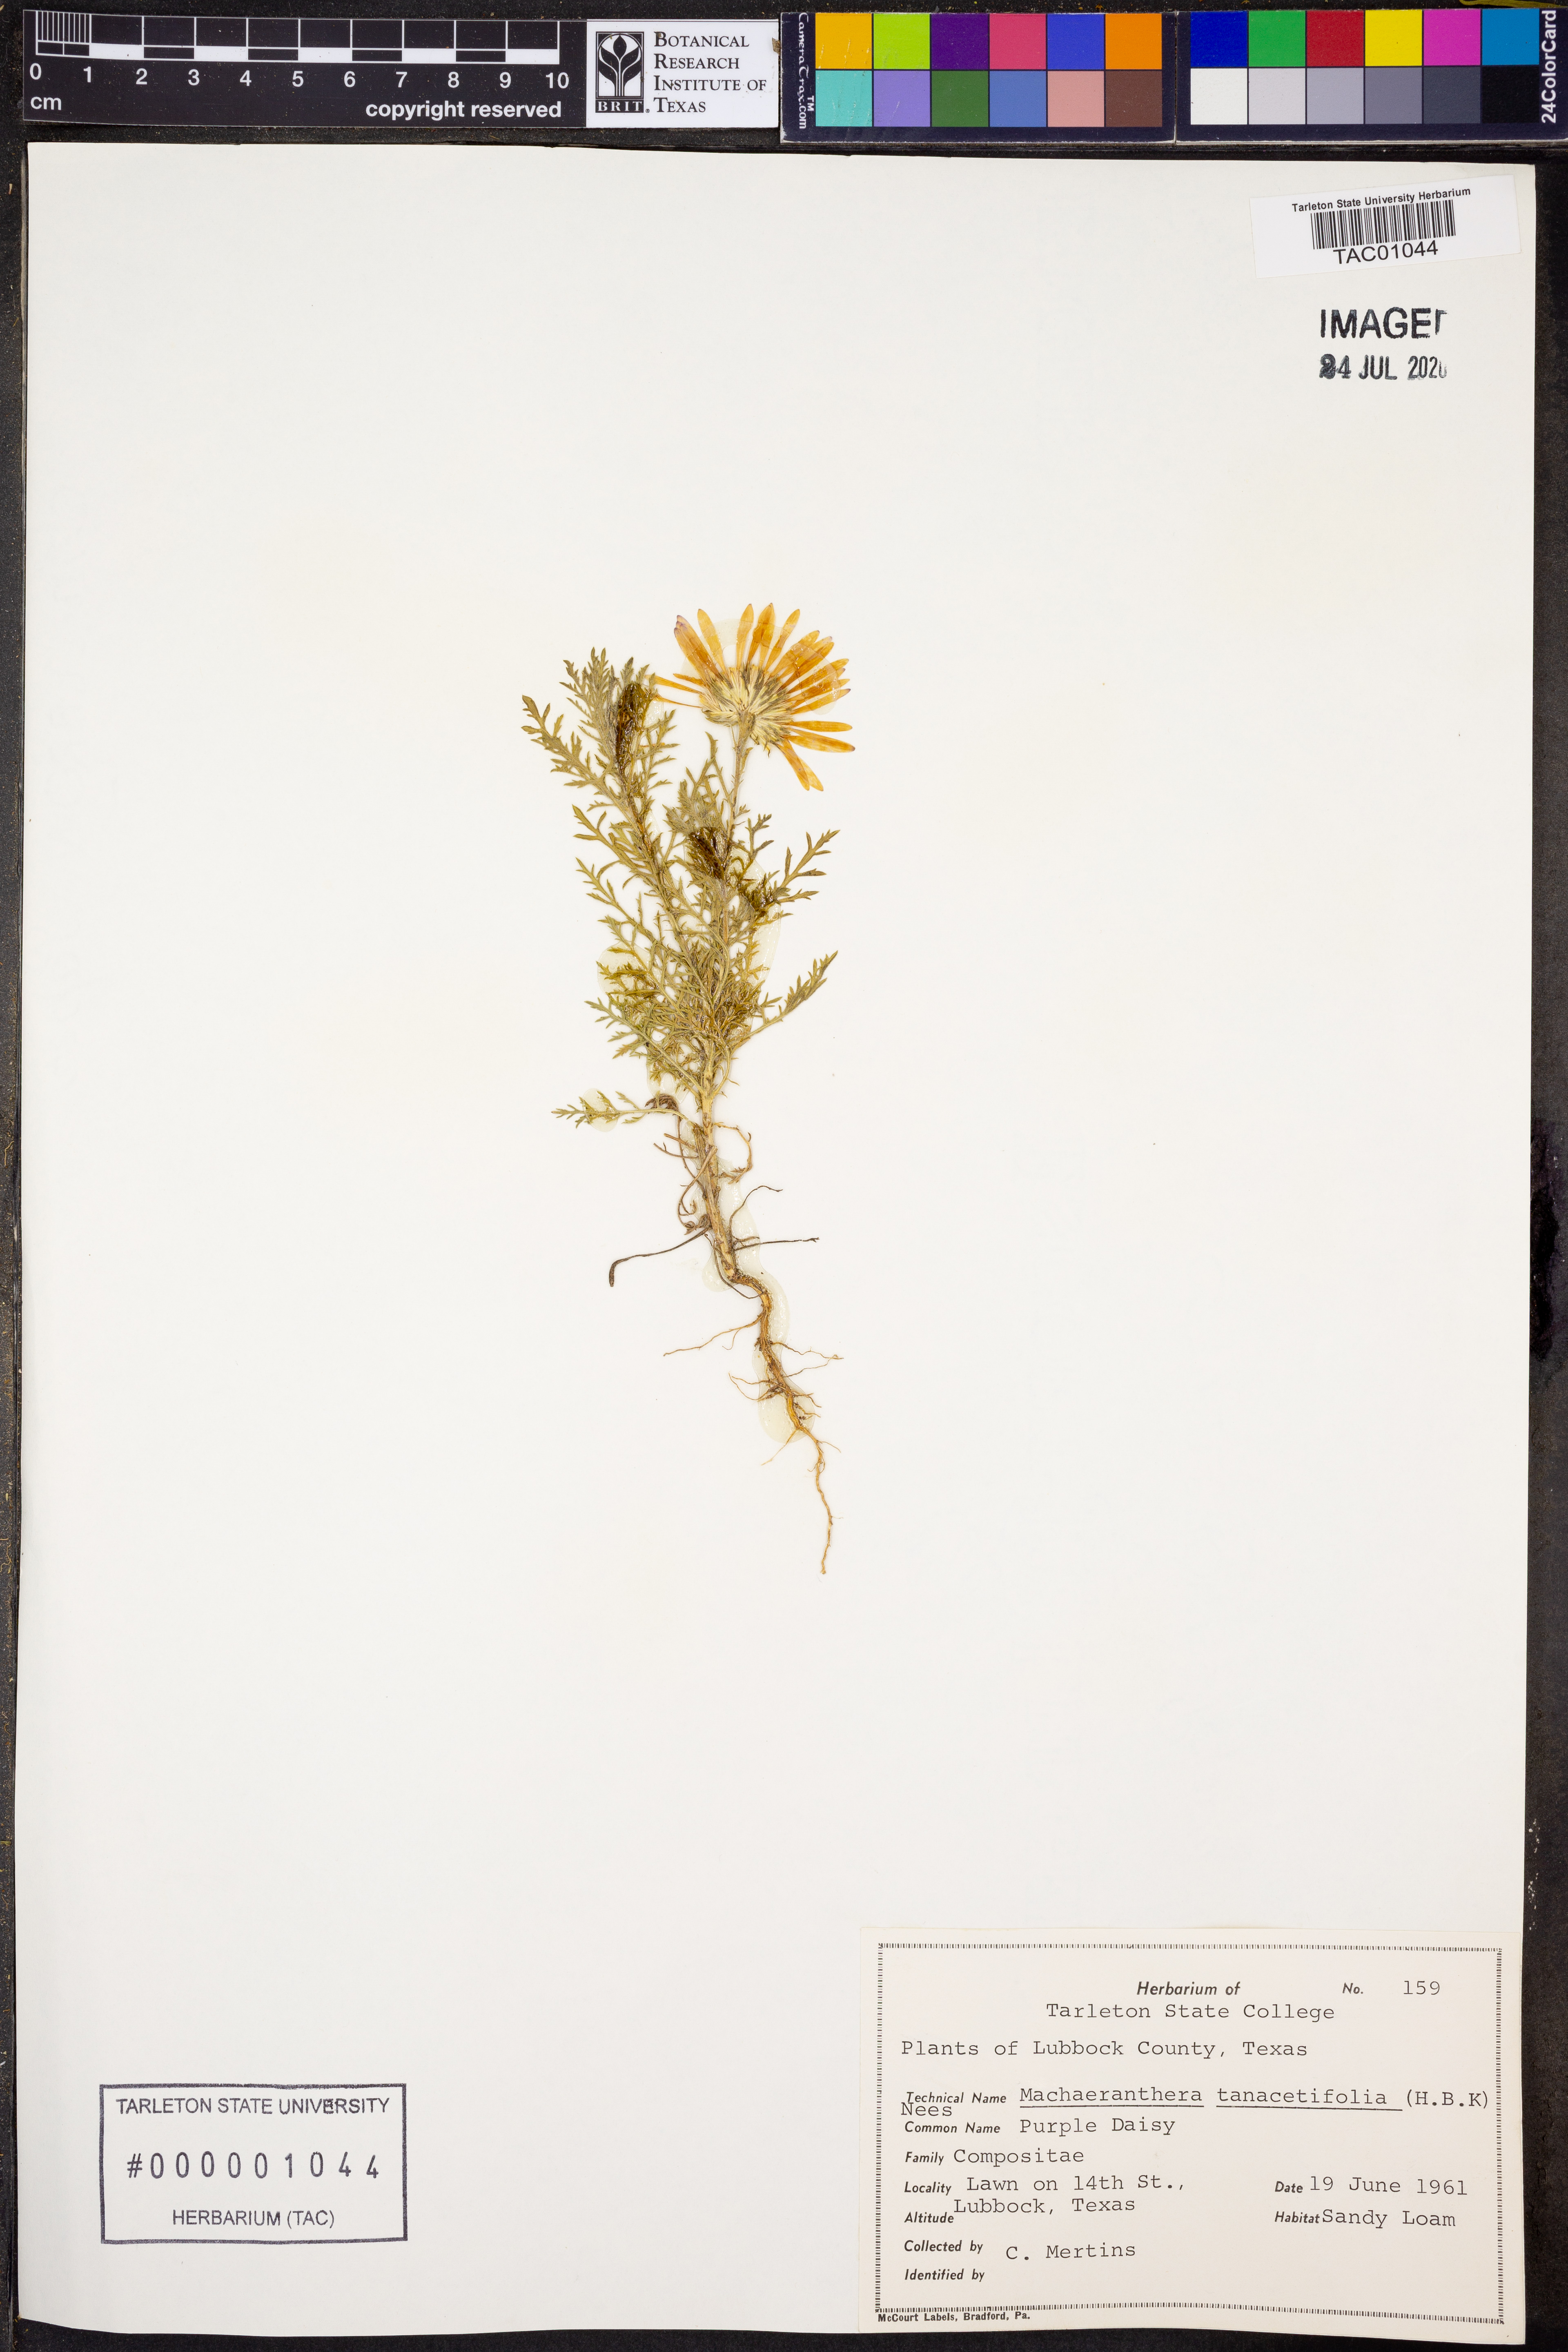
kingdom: Plantae
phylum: Tracheophyta
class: Magnoliopsida
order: Asterales
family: Asteraceae
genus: Machaeranthera
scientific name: Machaeranthera tanacetifolia
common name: Tansy-aster
